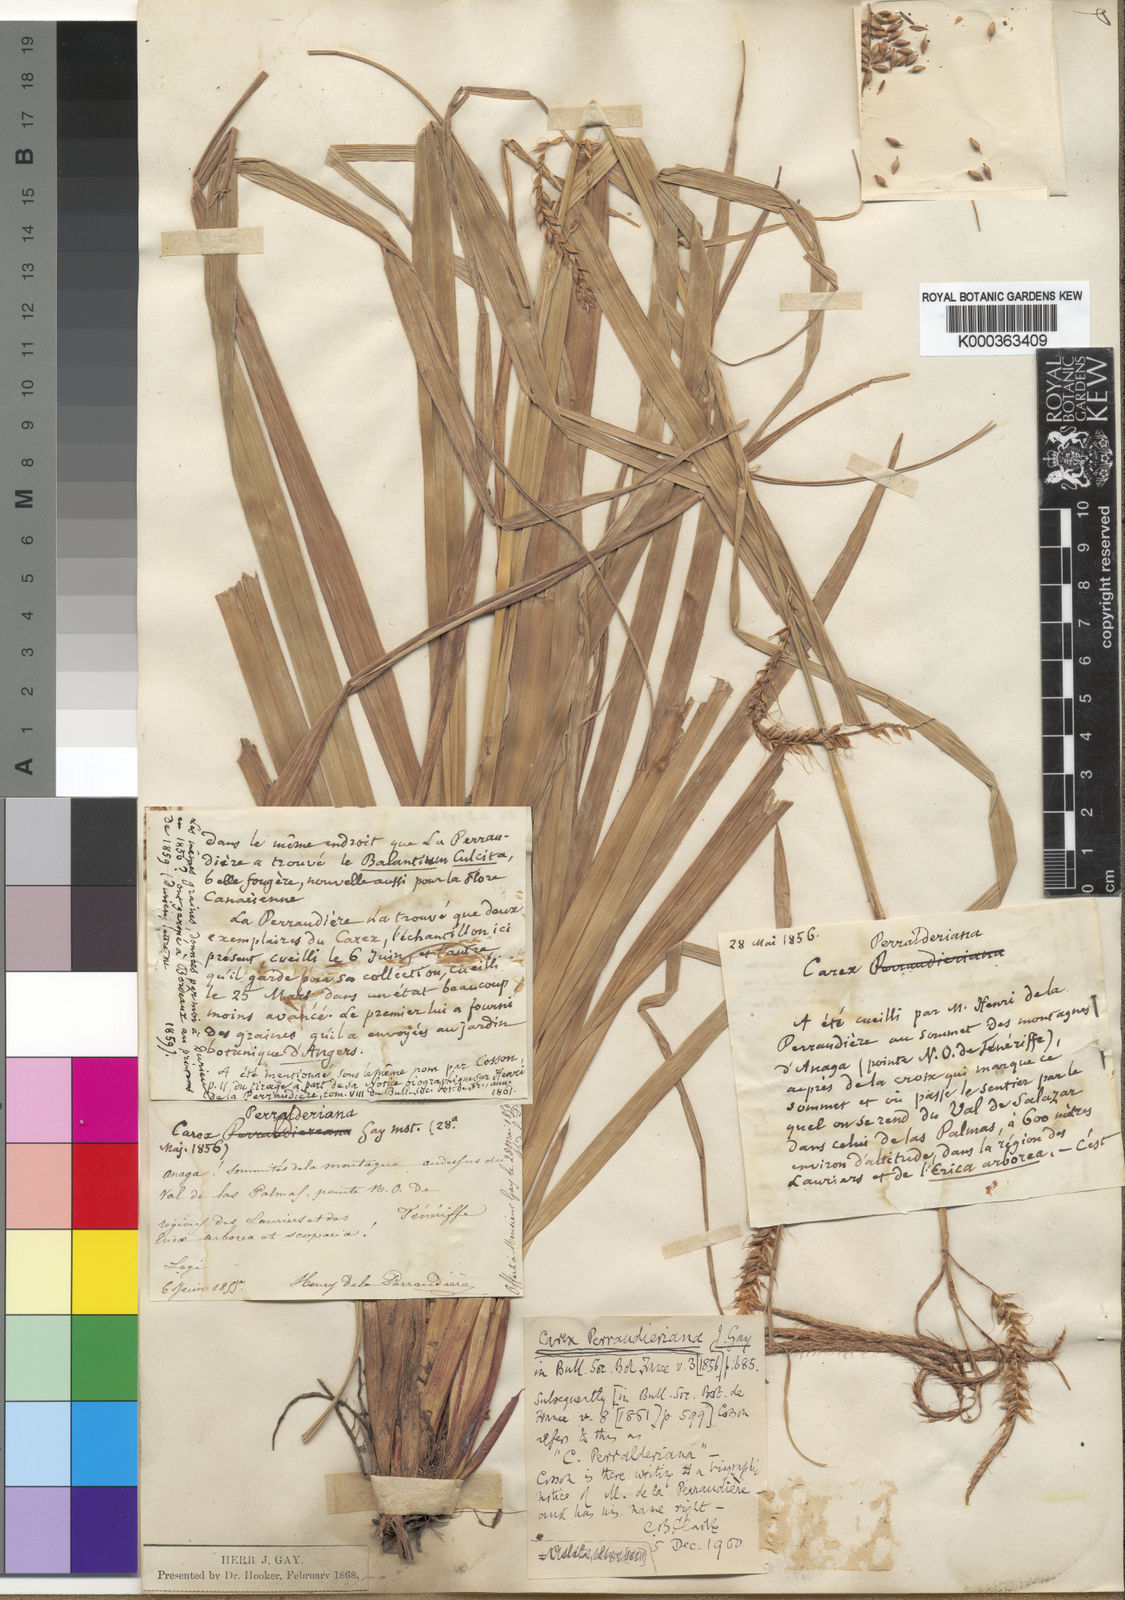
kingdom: Plantae
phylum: Tracheophyta
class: Liliopsida
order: Poales
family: Cyperaceae
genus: Carex
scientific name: Carex
